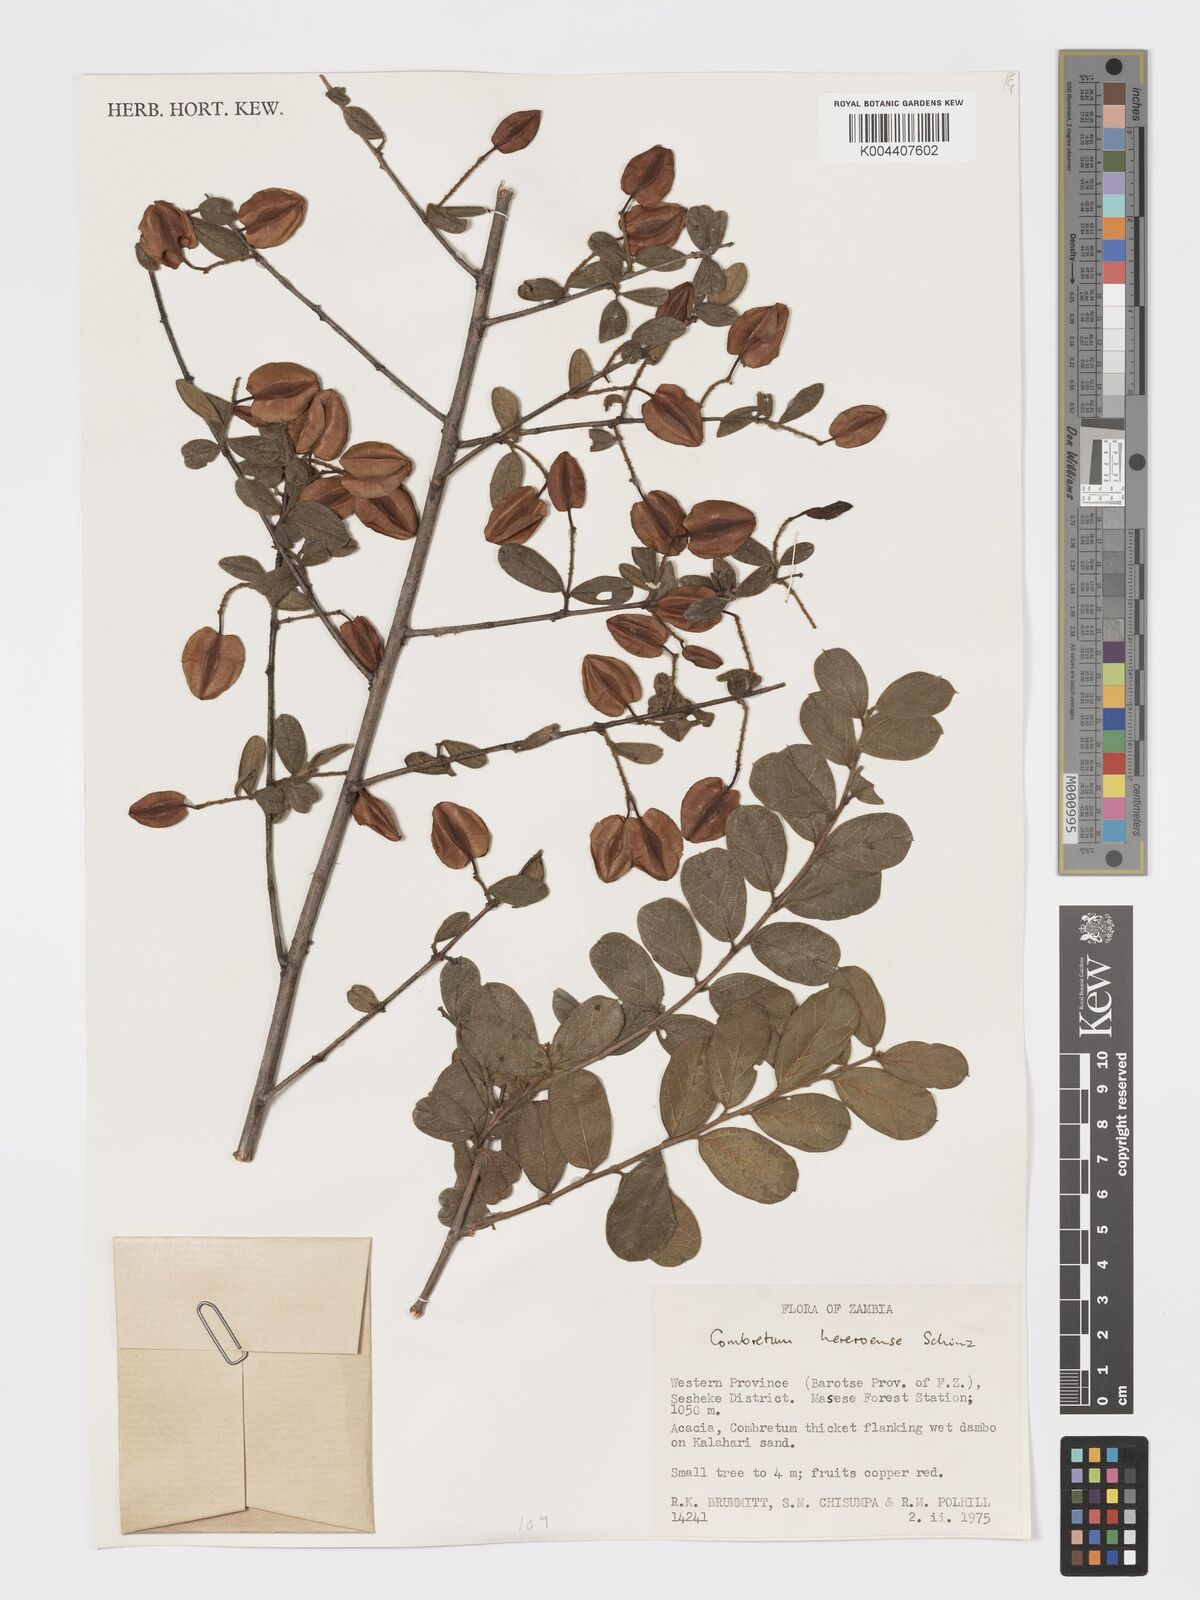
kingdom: Plantae
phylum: Tracheophyta
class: Magnoliopsida
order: Myrtales
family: Combretaceae
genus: Combretum
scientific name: Combretum hereroense
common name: Russet bushwillow
